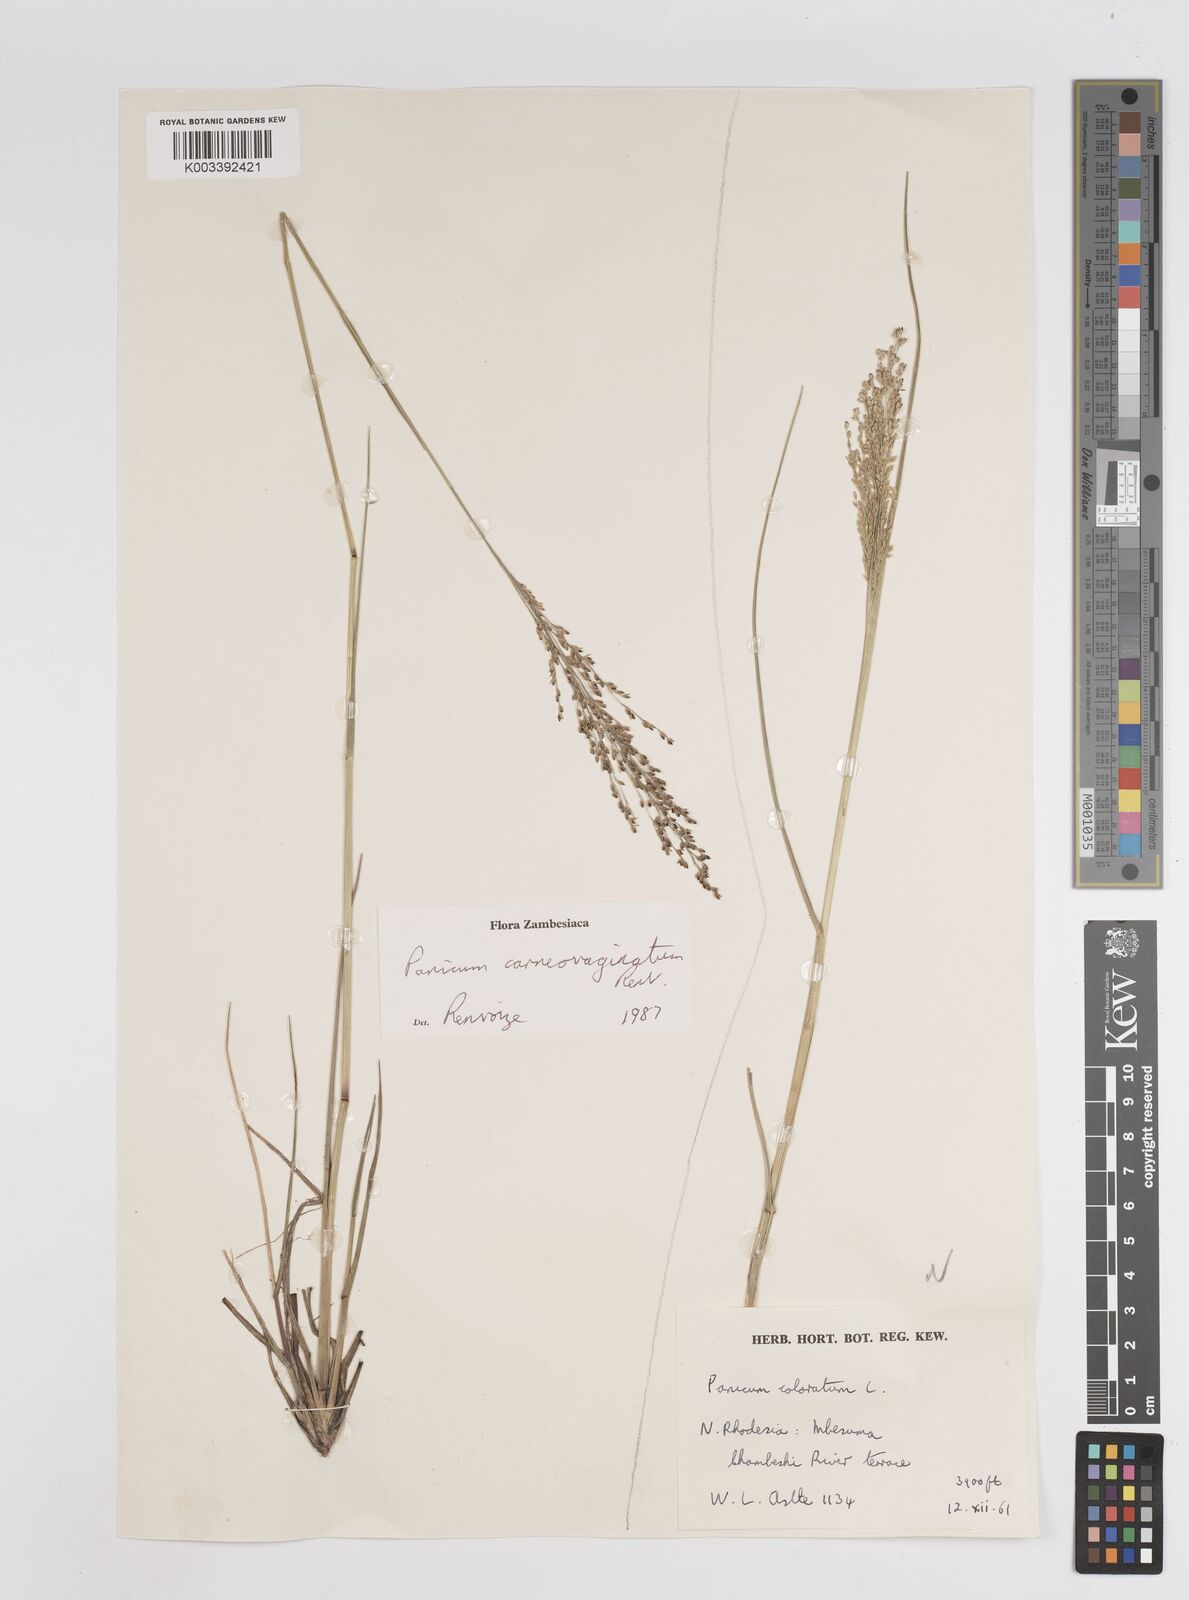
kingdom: Plantae
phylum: Tracheophyta
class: Liliopsida
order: Poales
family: Poaceae
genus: Panicum
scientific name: Panicum carneovaginatum
